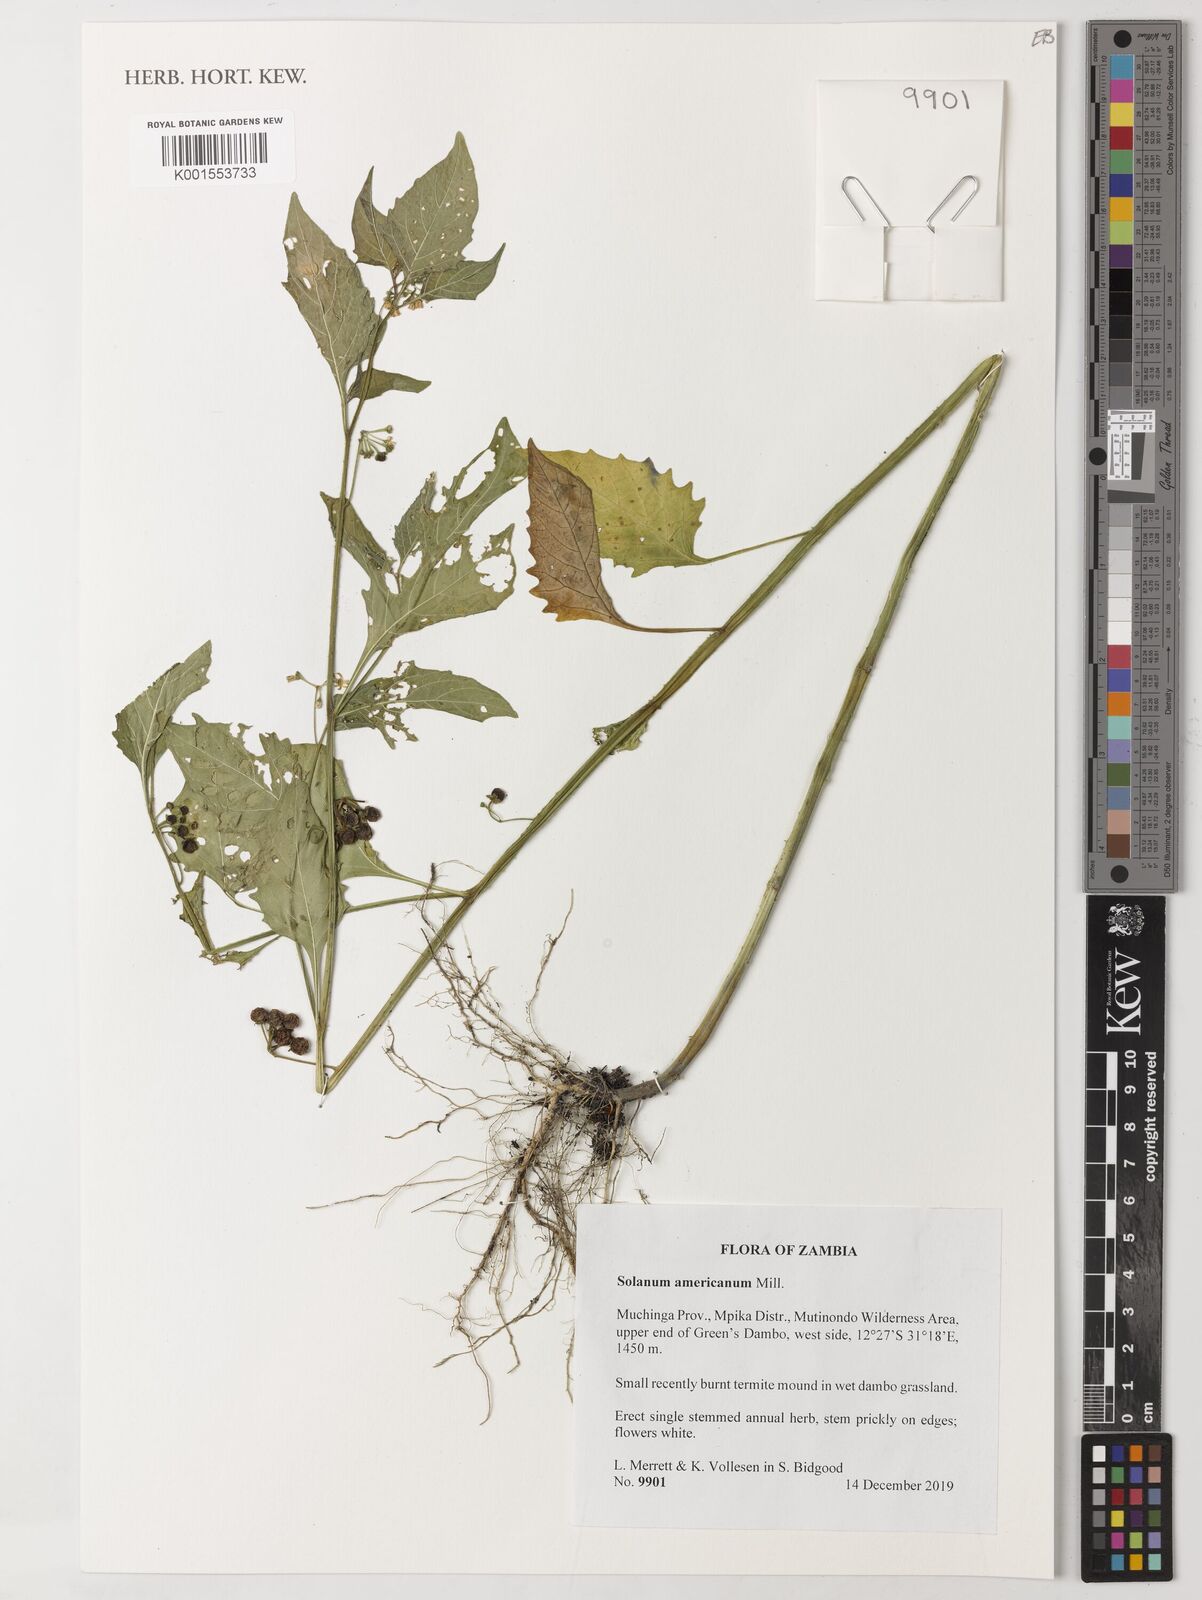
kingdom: Plantae
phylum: Tracheophyta
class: Magnoliopsida
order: Solanales
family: Solanaceae
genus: Solanum
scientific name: Solanum americanum
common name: American black nightshade
